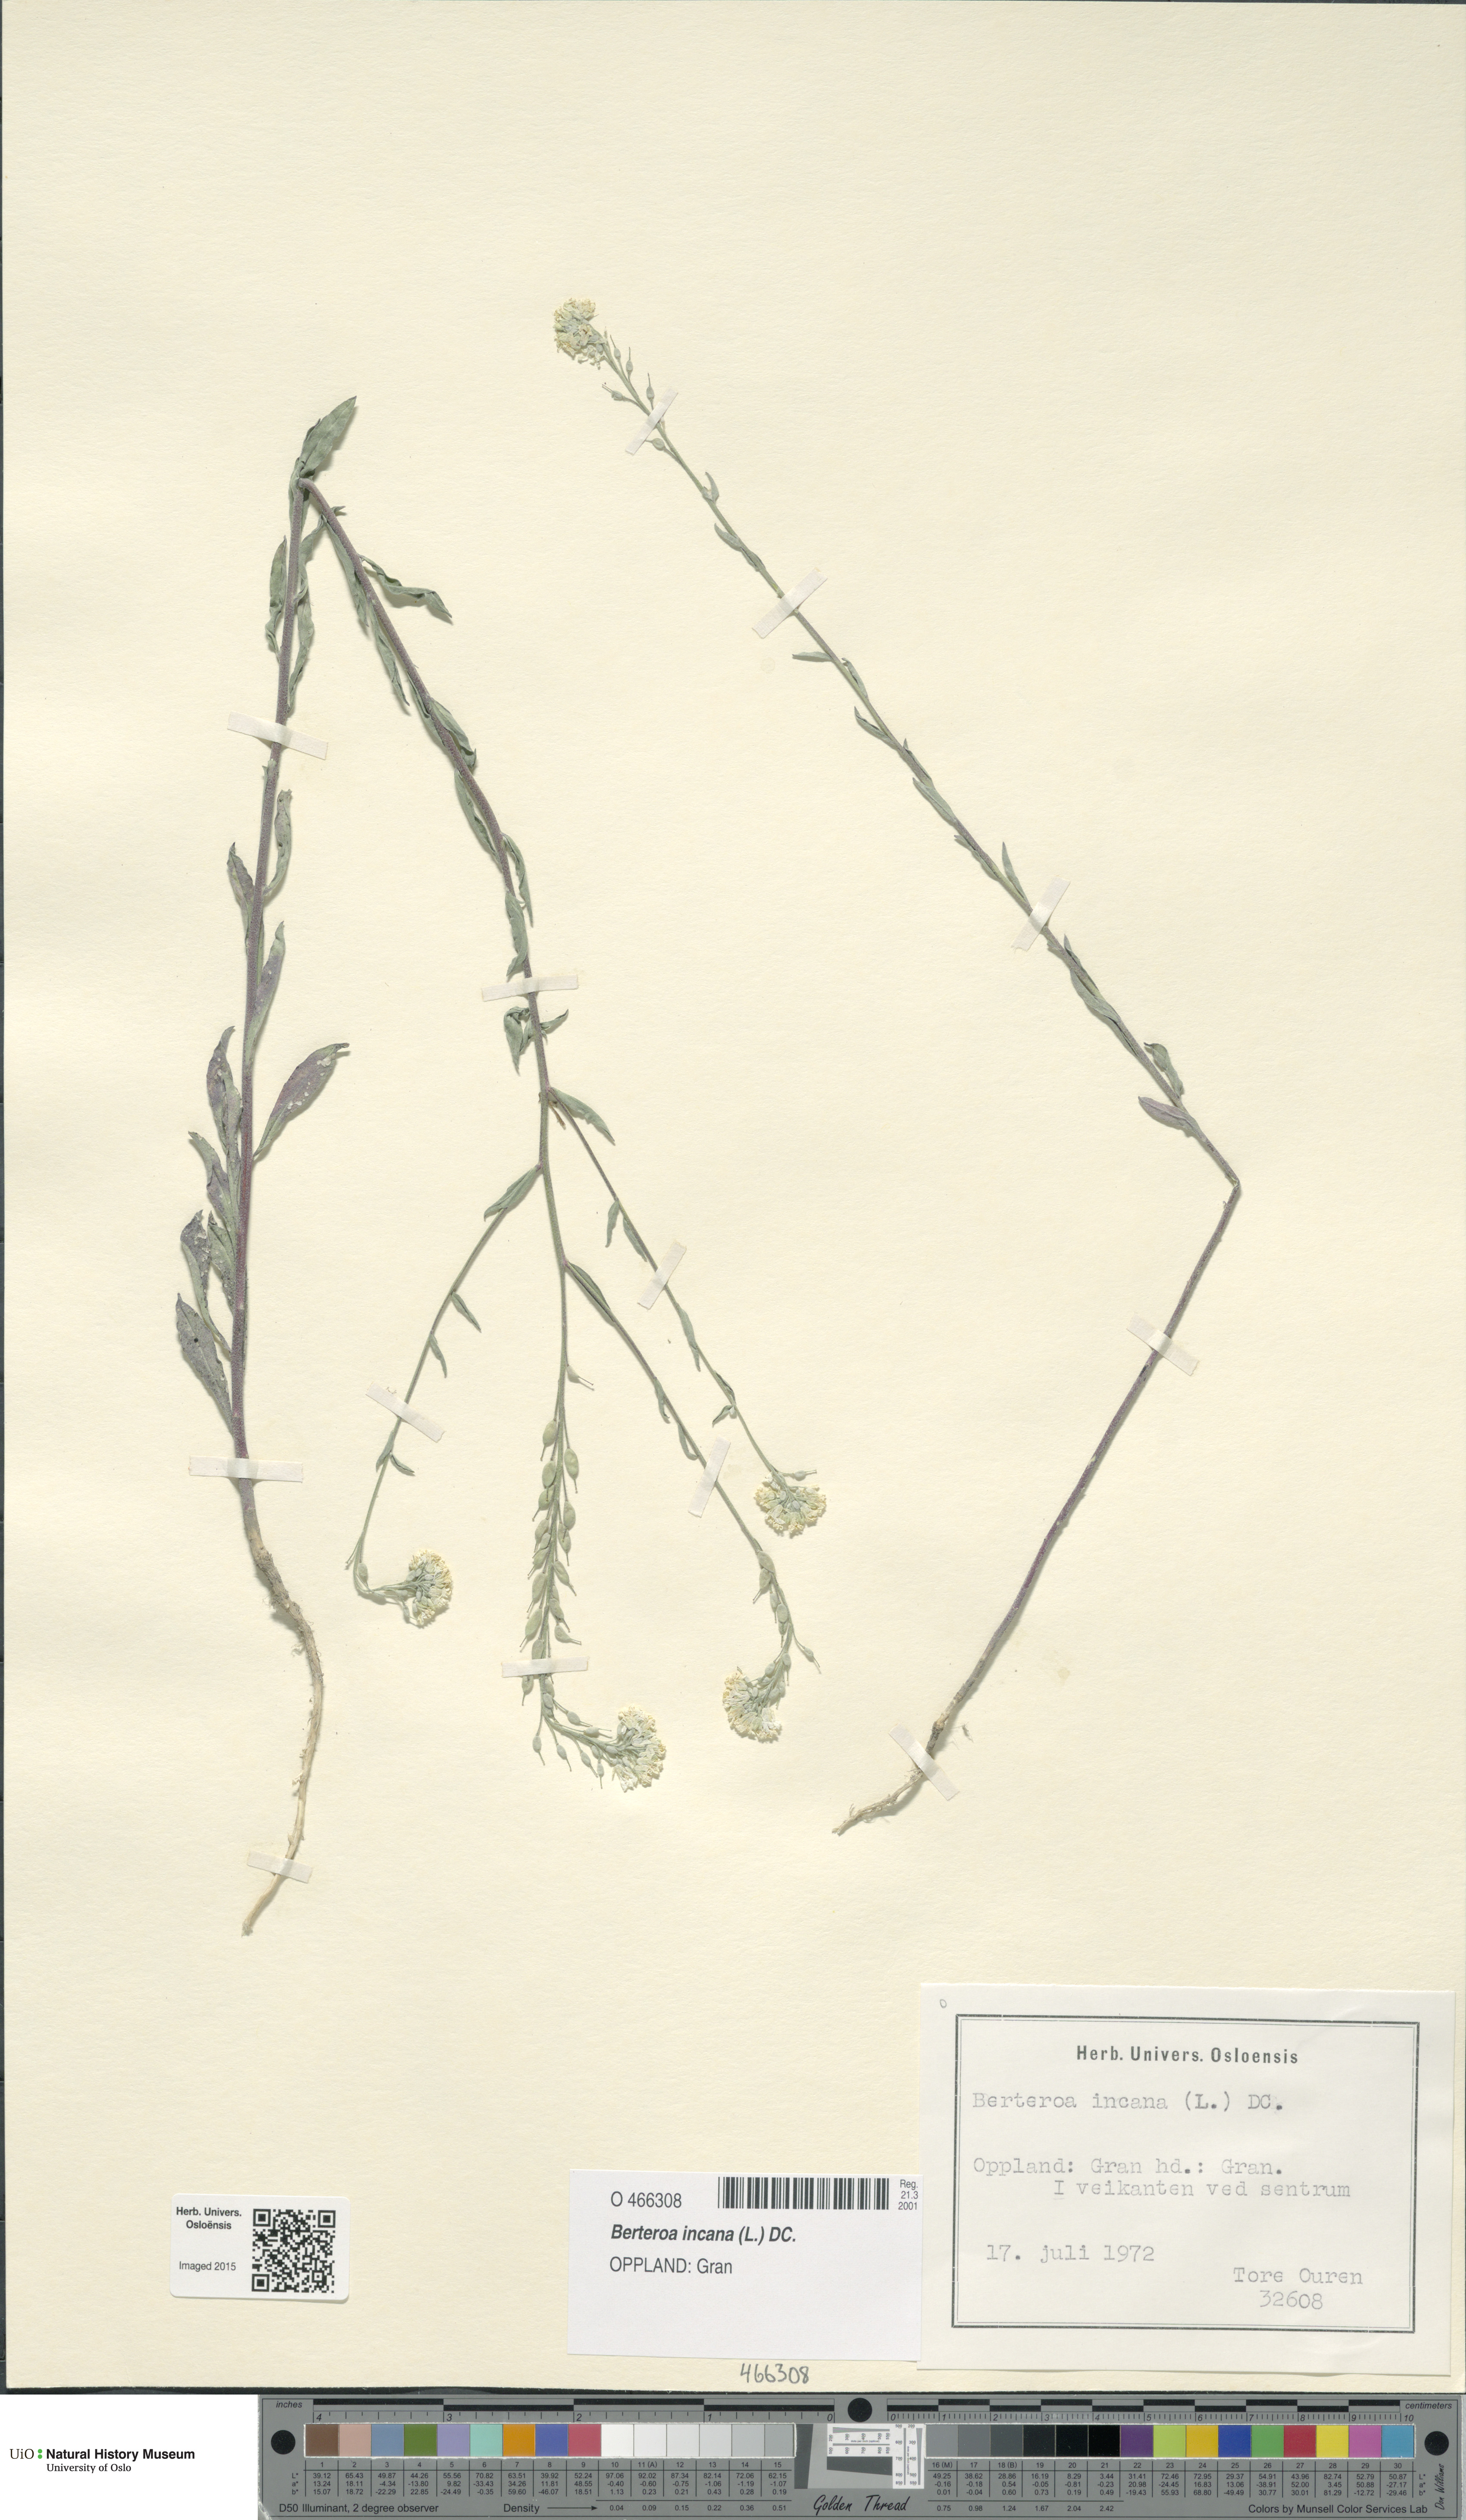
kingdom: Plantae
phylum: Tracheophyta
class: Magnoliopsida
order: Brassicales
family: Brassicaceae
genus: Berteroa
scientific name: Berteroa incana
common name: Hoary alison
